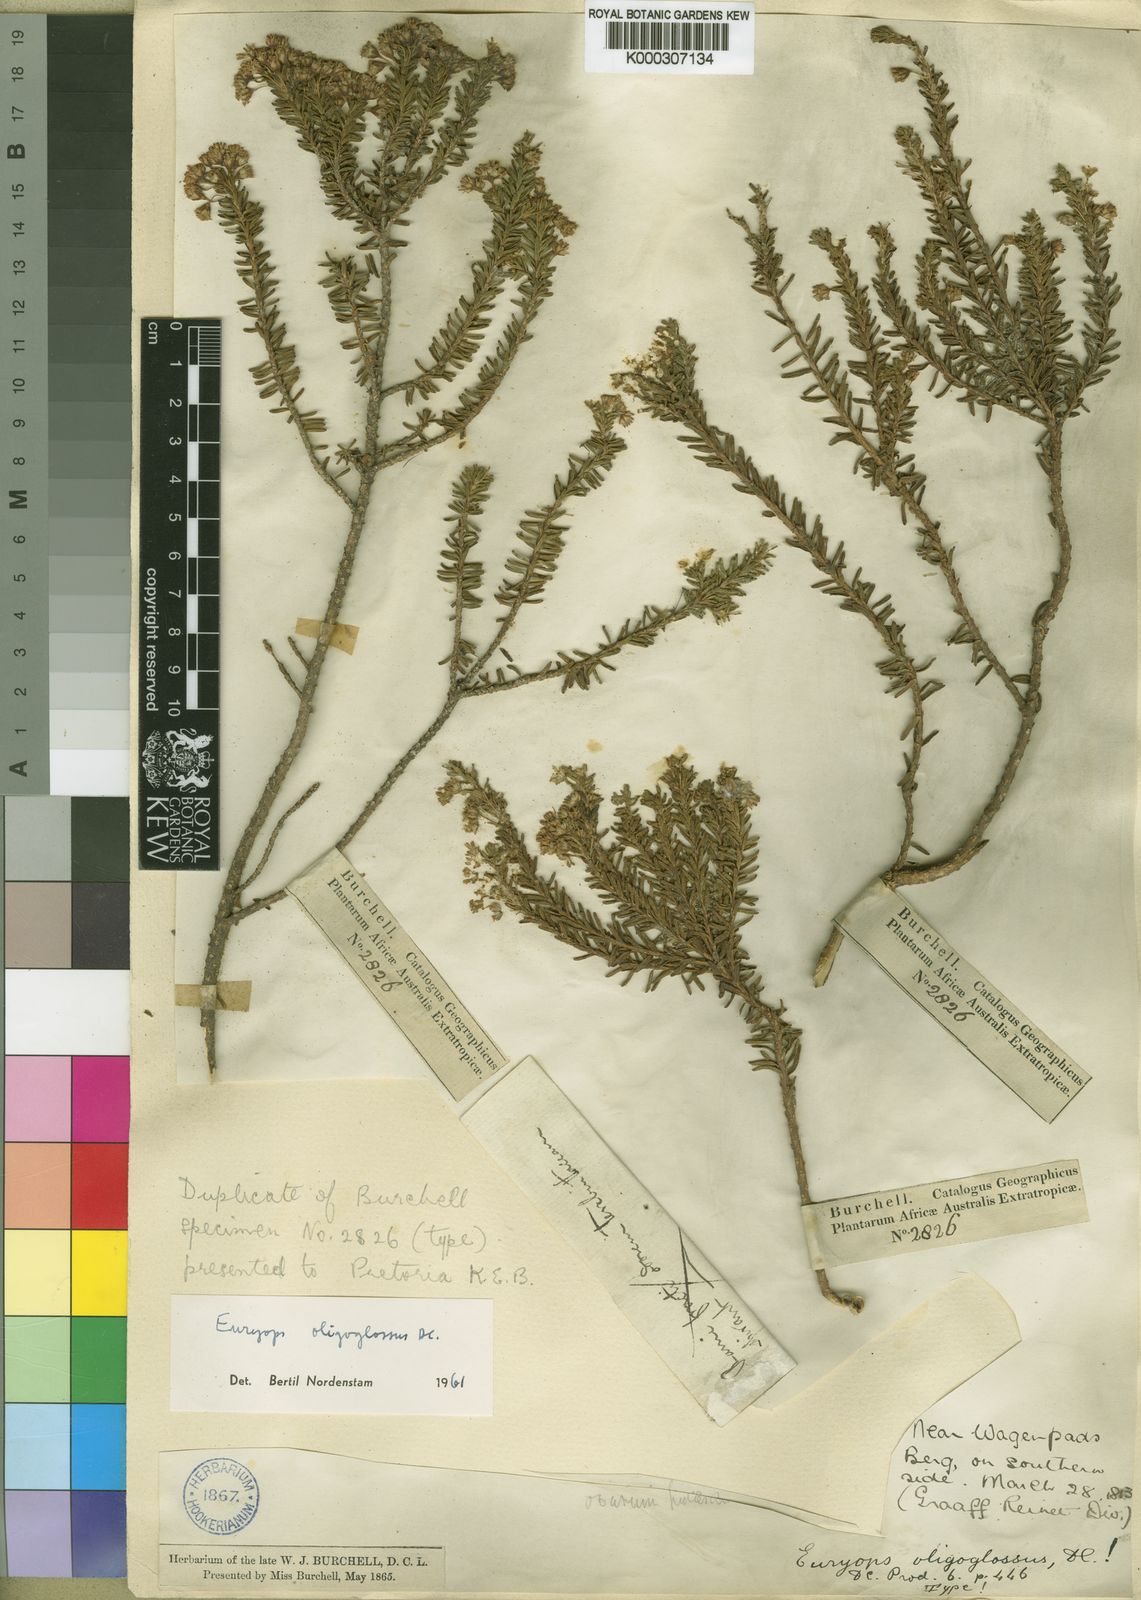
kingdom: Plantae
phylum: Tracheophyta
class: Magnoliopsida
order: Asterales
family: Asteraceae
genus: Euryops
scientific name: Euryops oligoglossus
